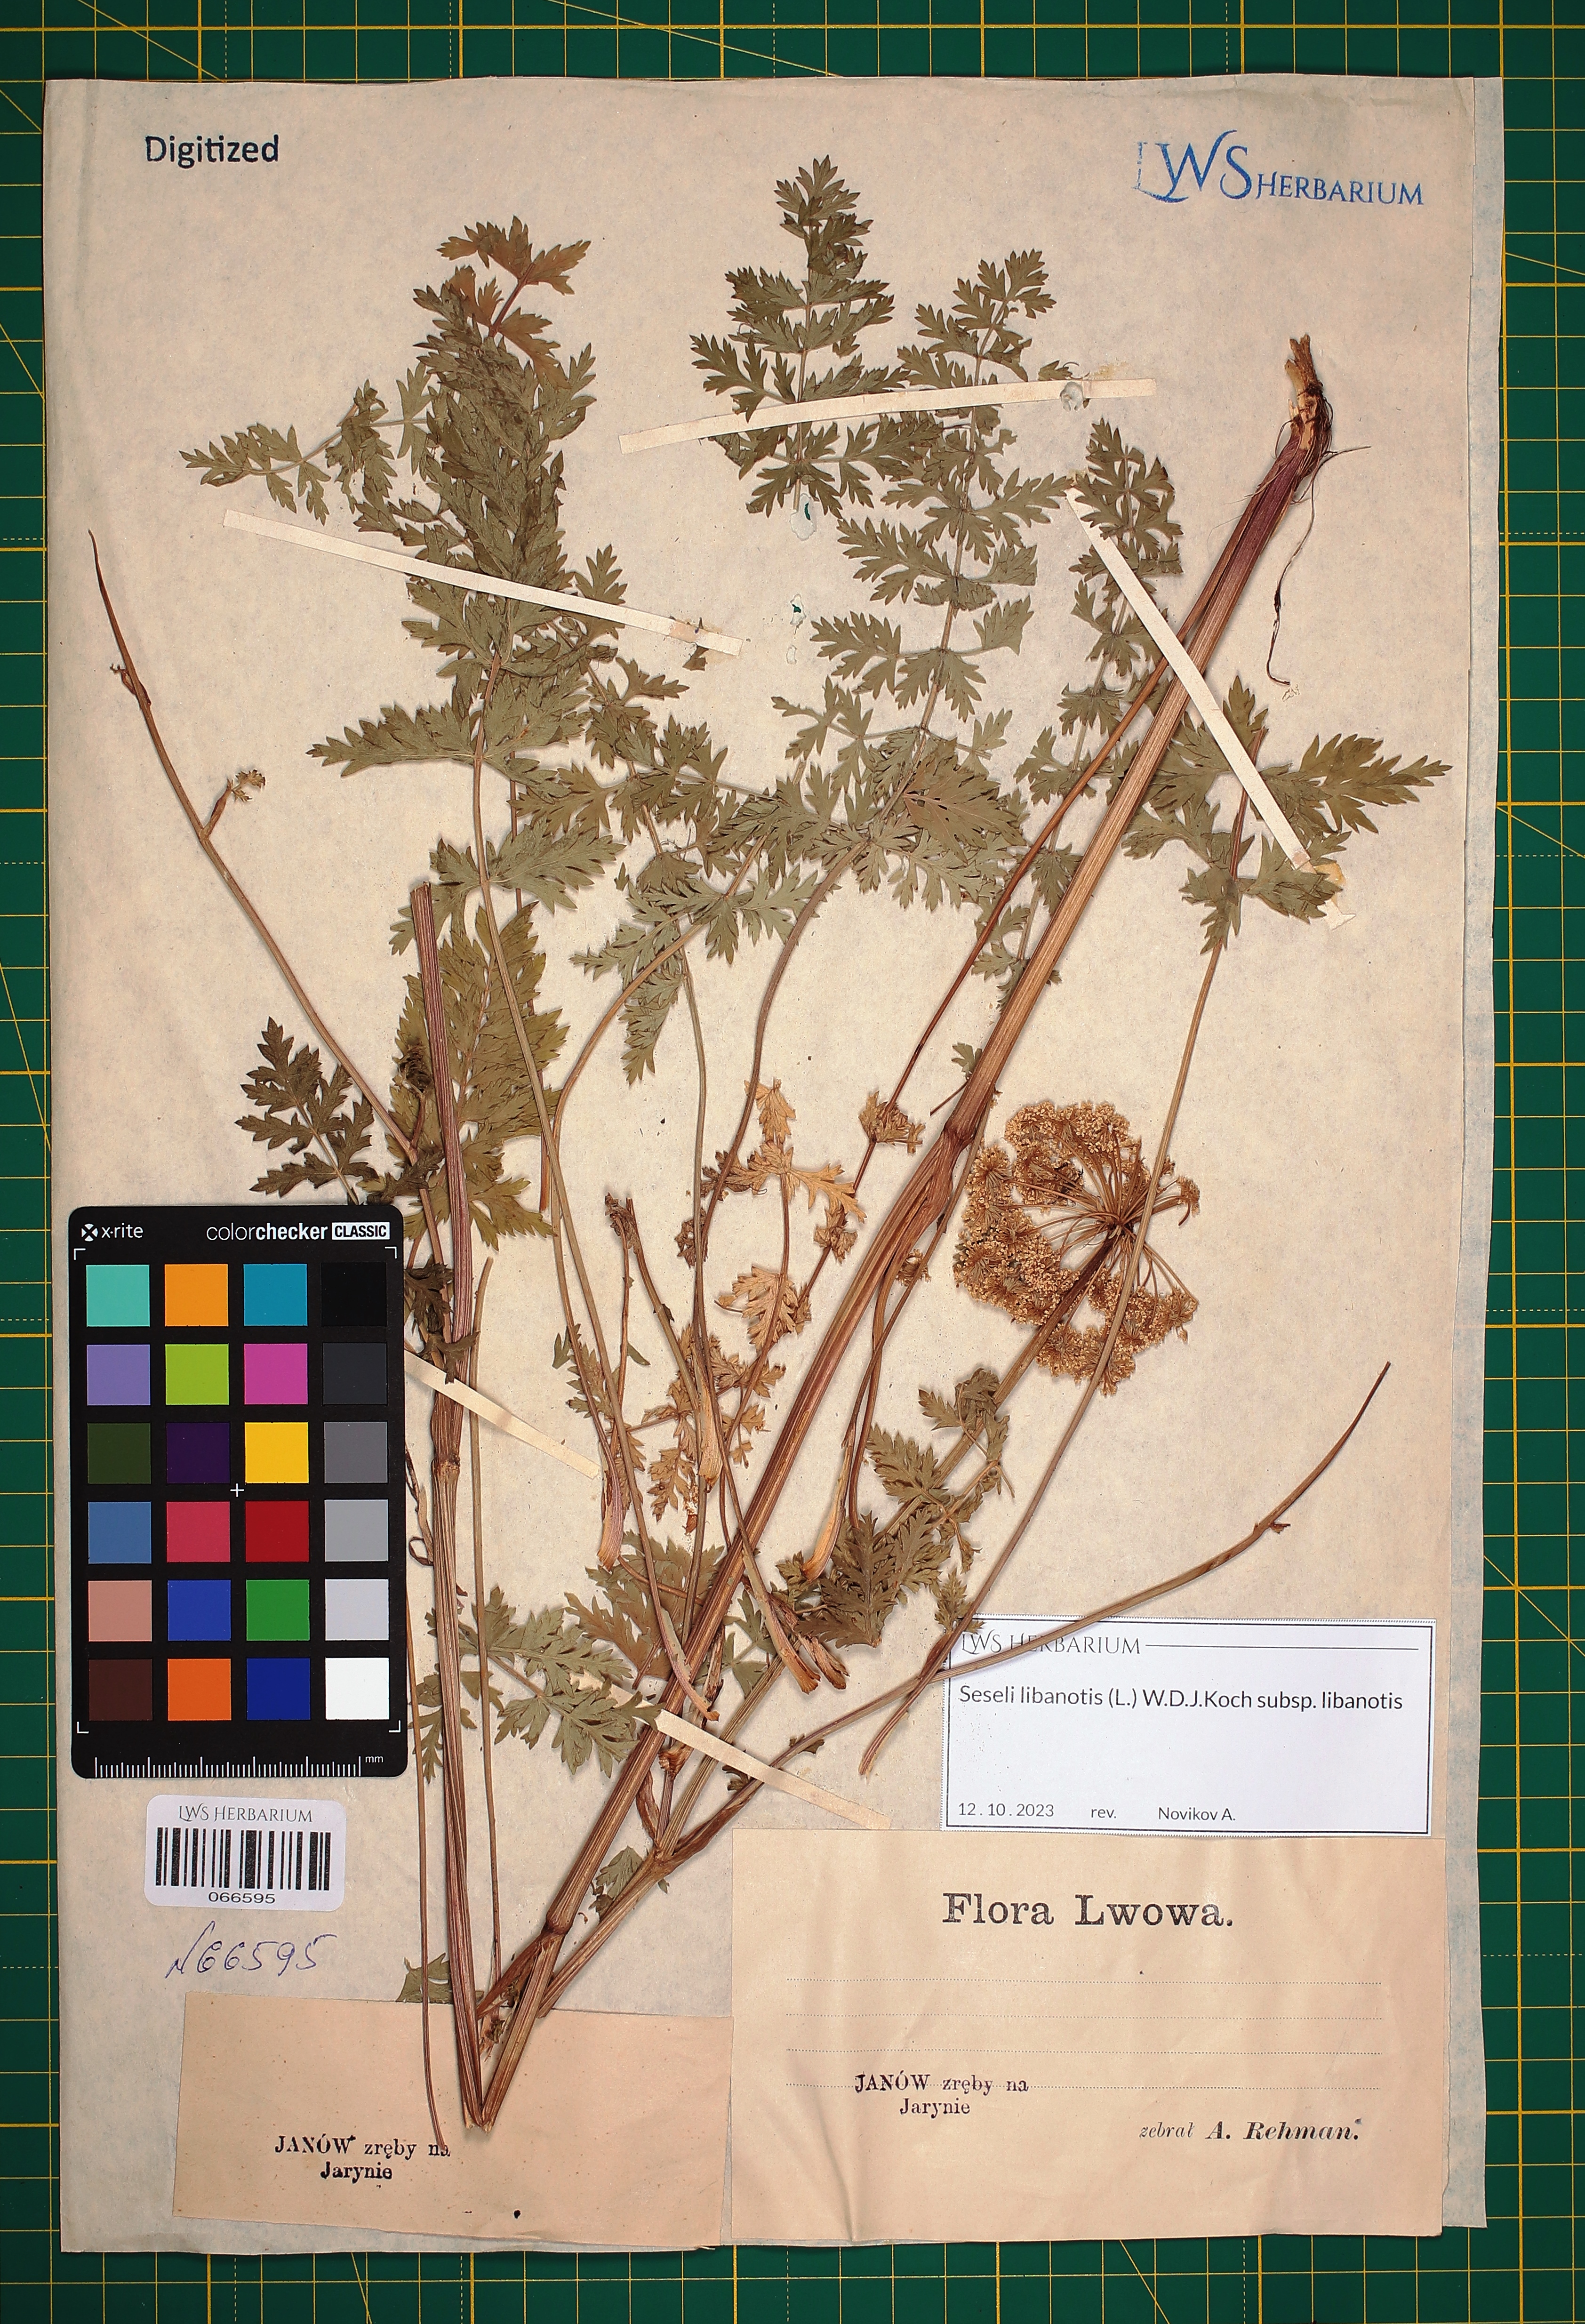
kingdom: Plantae
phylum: Tracheophyta
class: Magnoliopsida
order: Apiales
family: Apiaceae
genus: Seseli
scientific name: Seseli libanotis
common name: Mooncarrot
